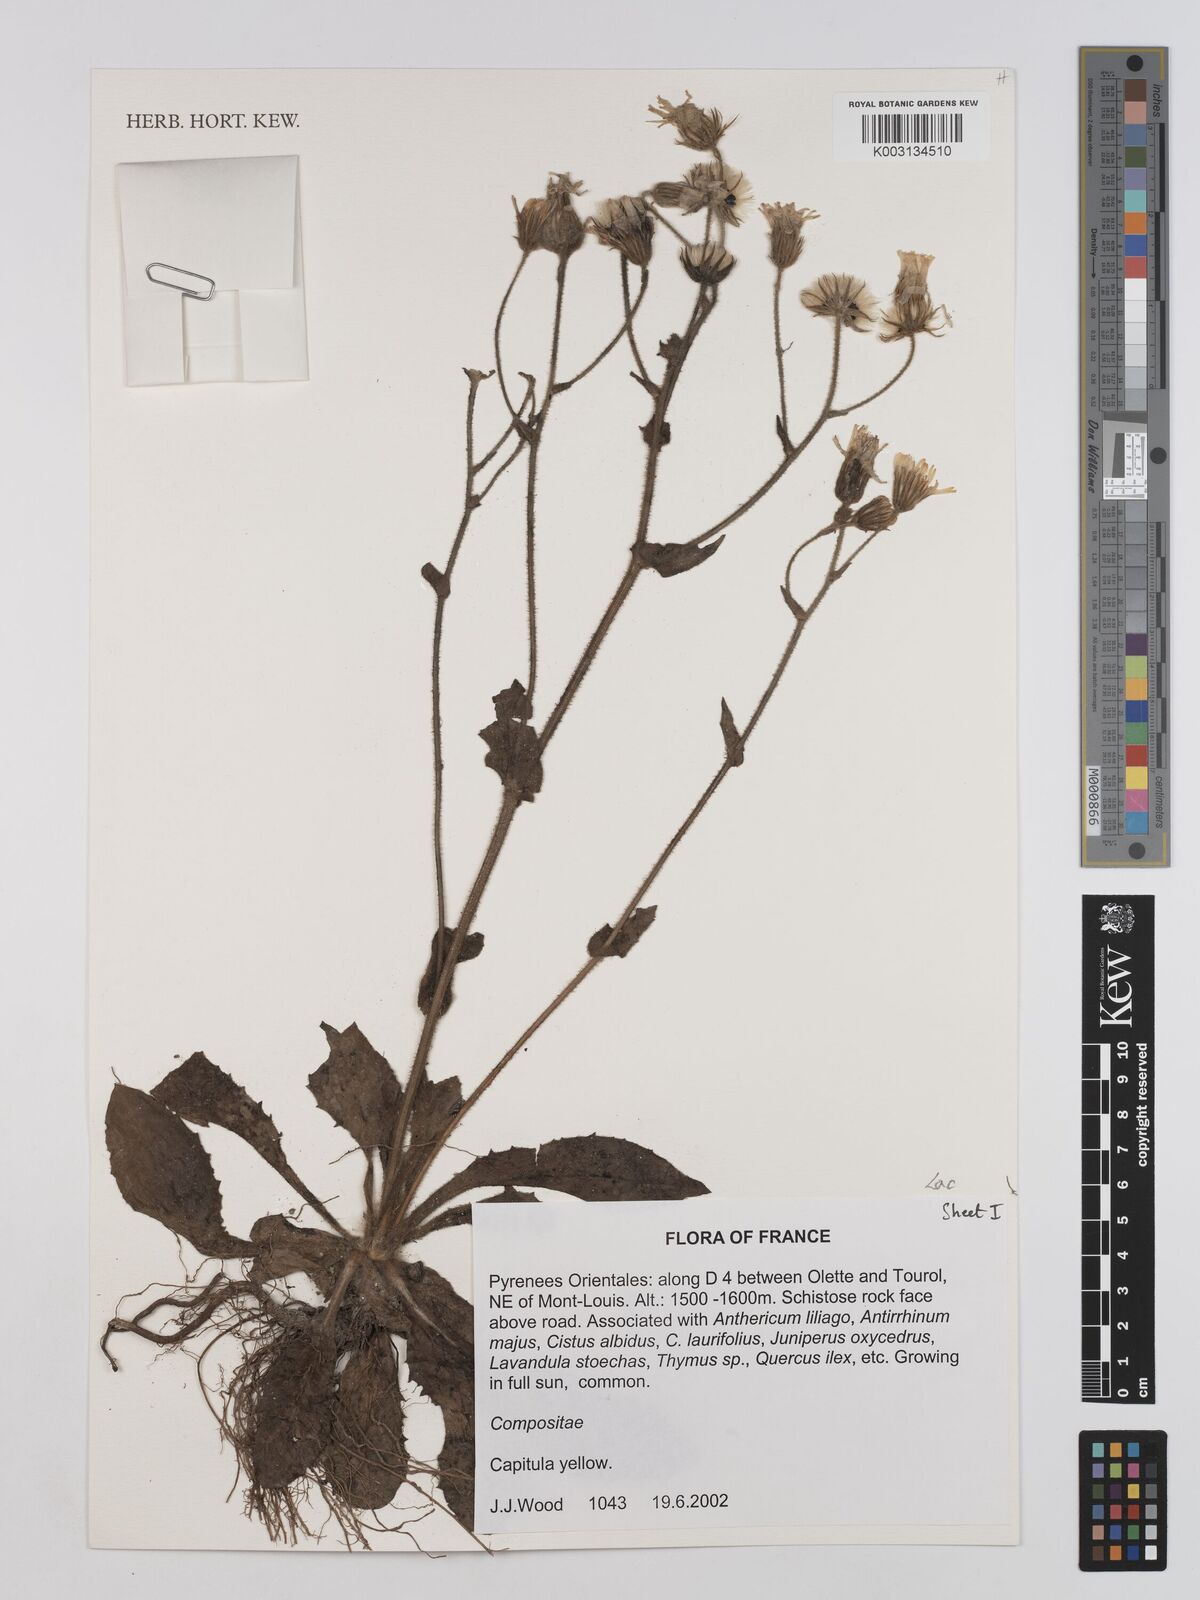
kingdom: Plantae
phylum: Tracheophyta
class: Magnoliopsida
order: Asterales
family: Asteraceae
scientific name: Asteraceae
